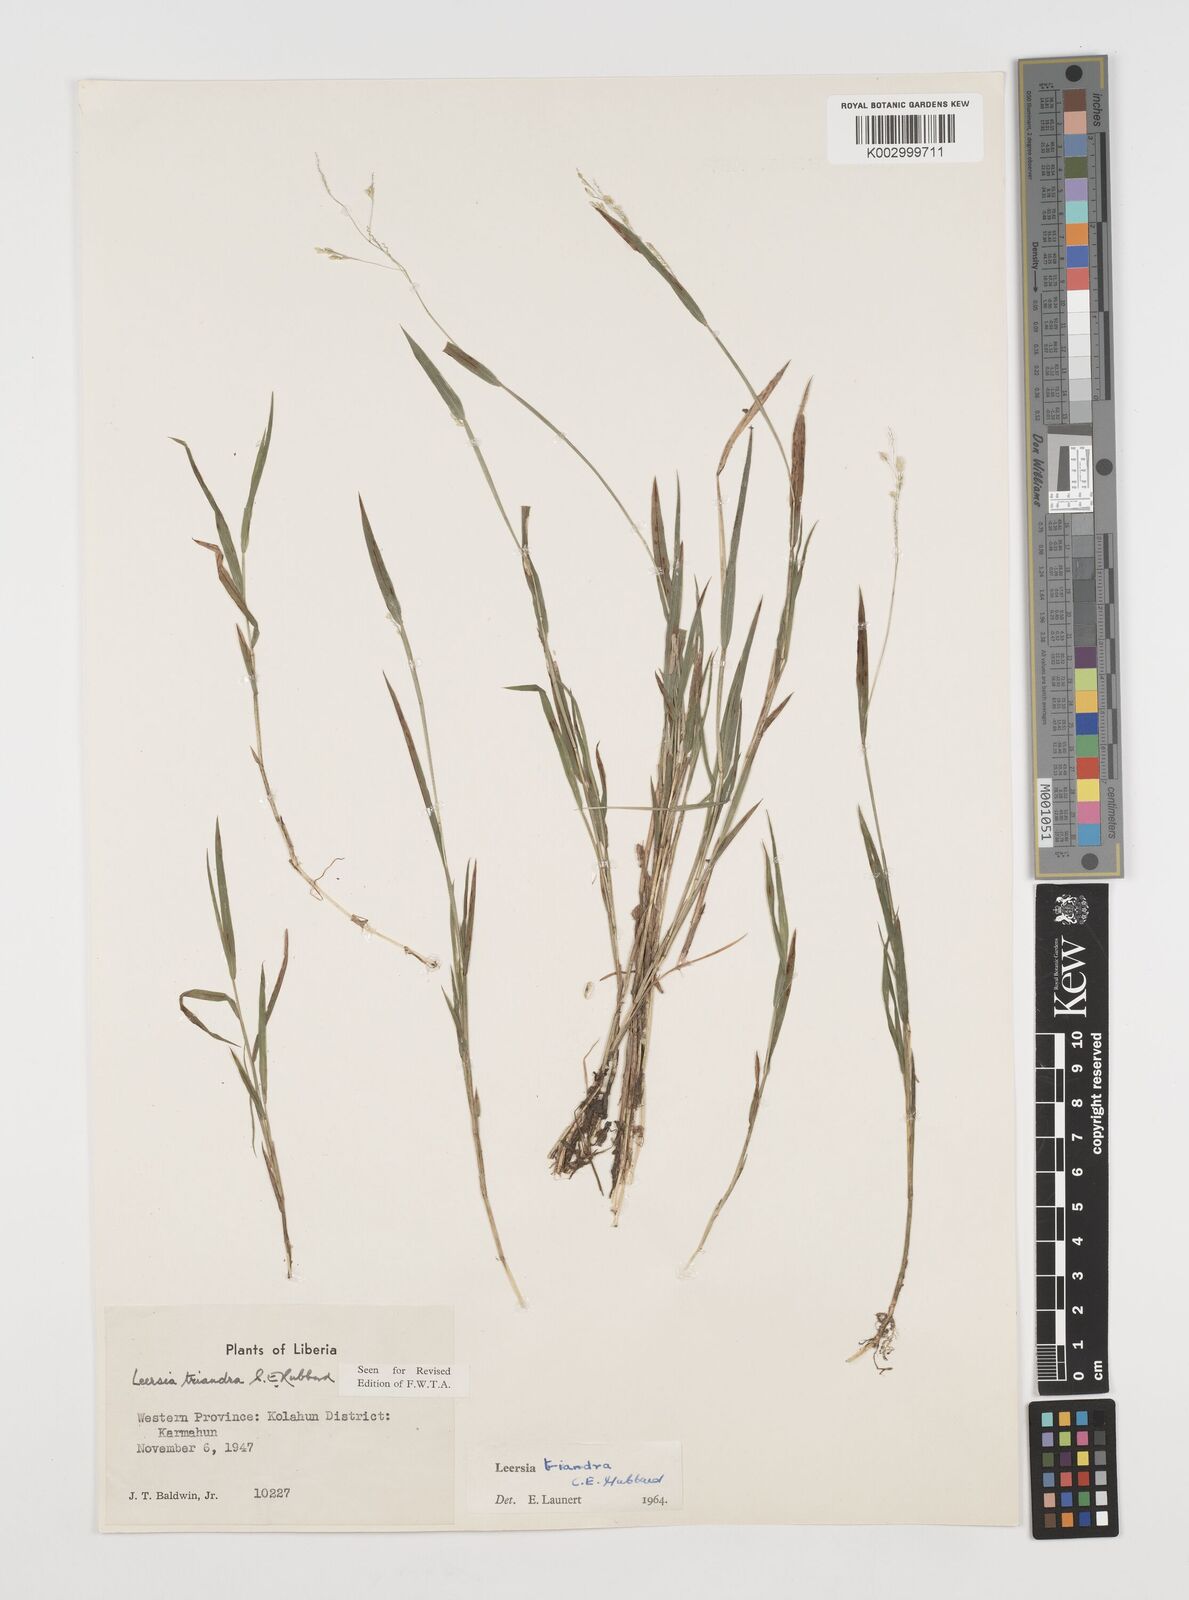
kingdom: Plantae
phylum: Tracheophyta
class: Liliopsida
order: Poales
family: Poaceae
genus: Leersia
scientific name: Leersia triandra
